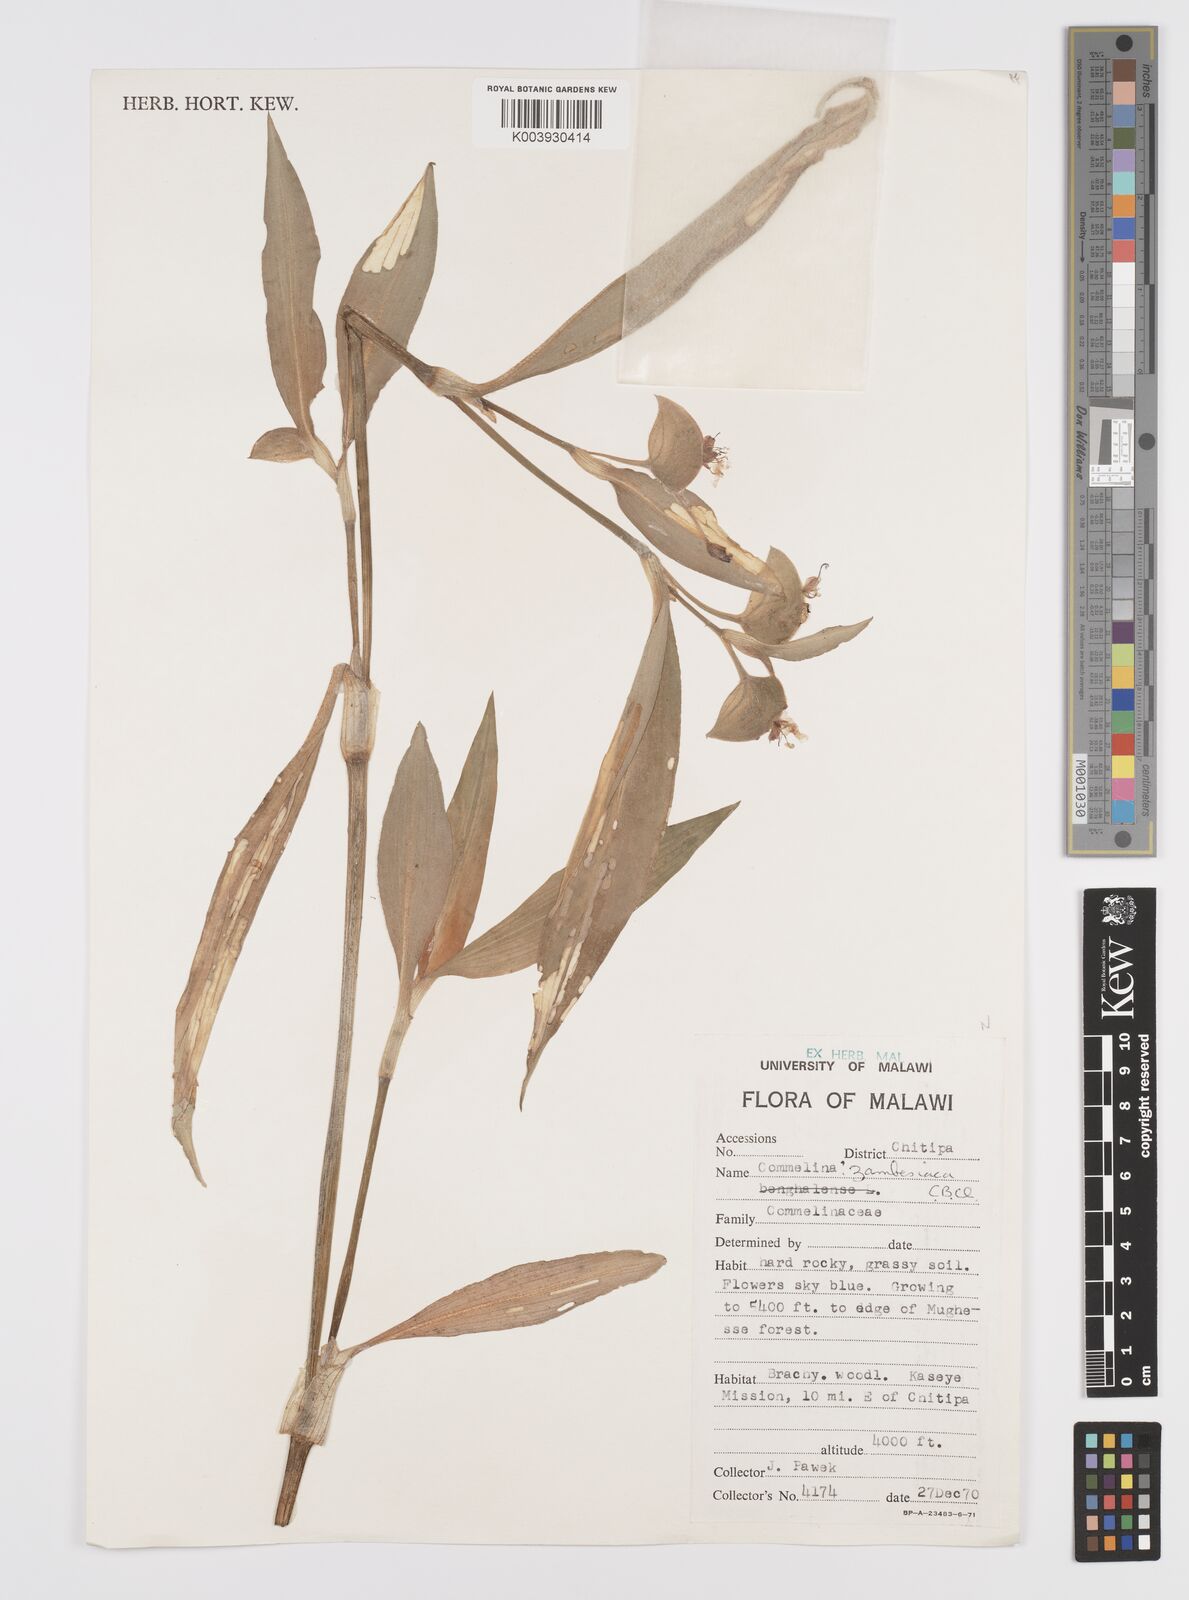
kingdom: Plantae
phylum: Tracheophyta
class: Liliopsida
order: Commelinales
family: Commelinaceae
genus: Commelina
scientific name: Commelina zambesica
